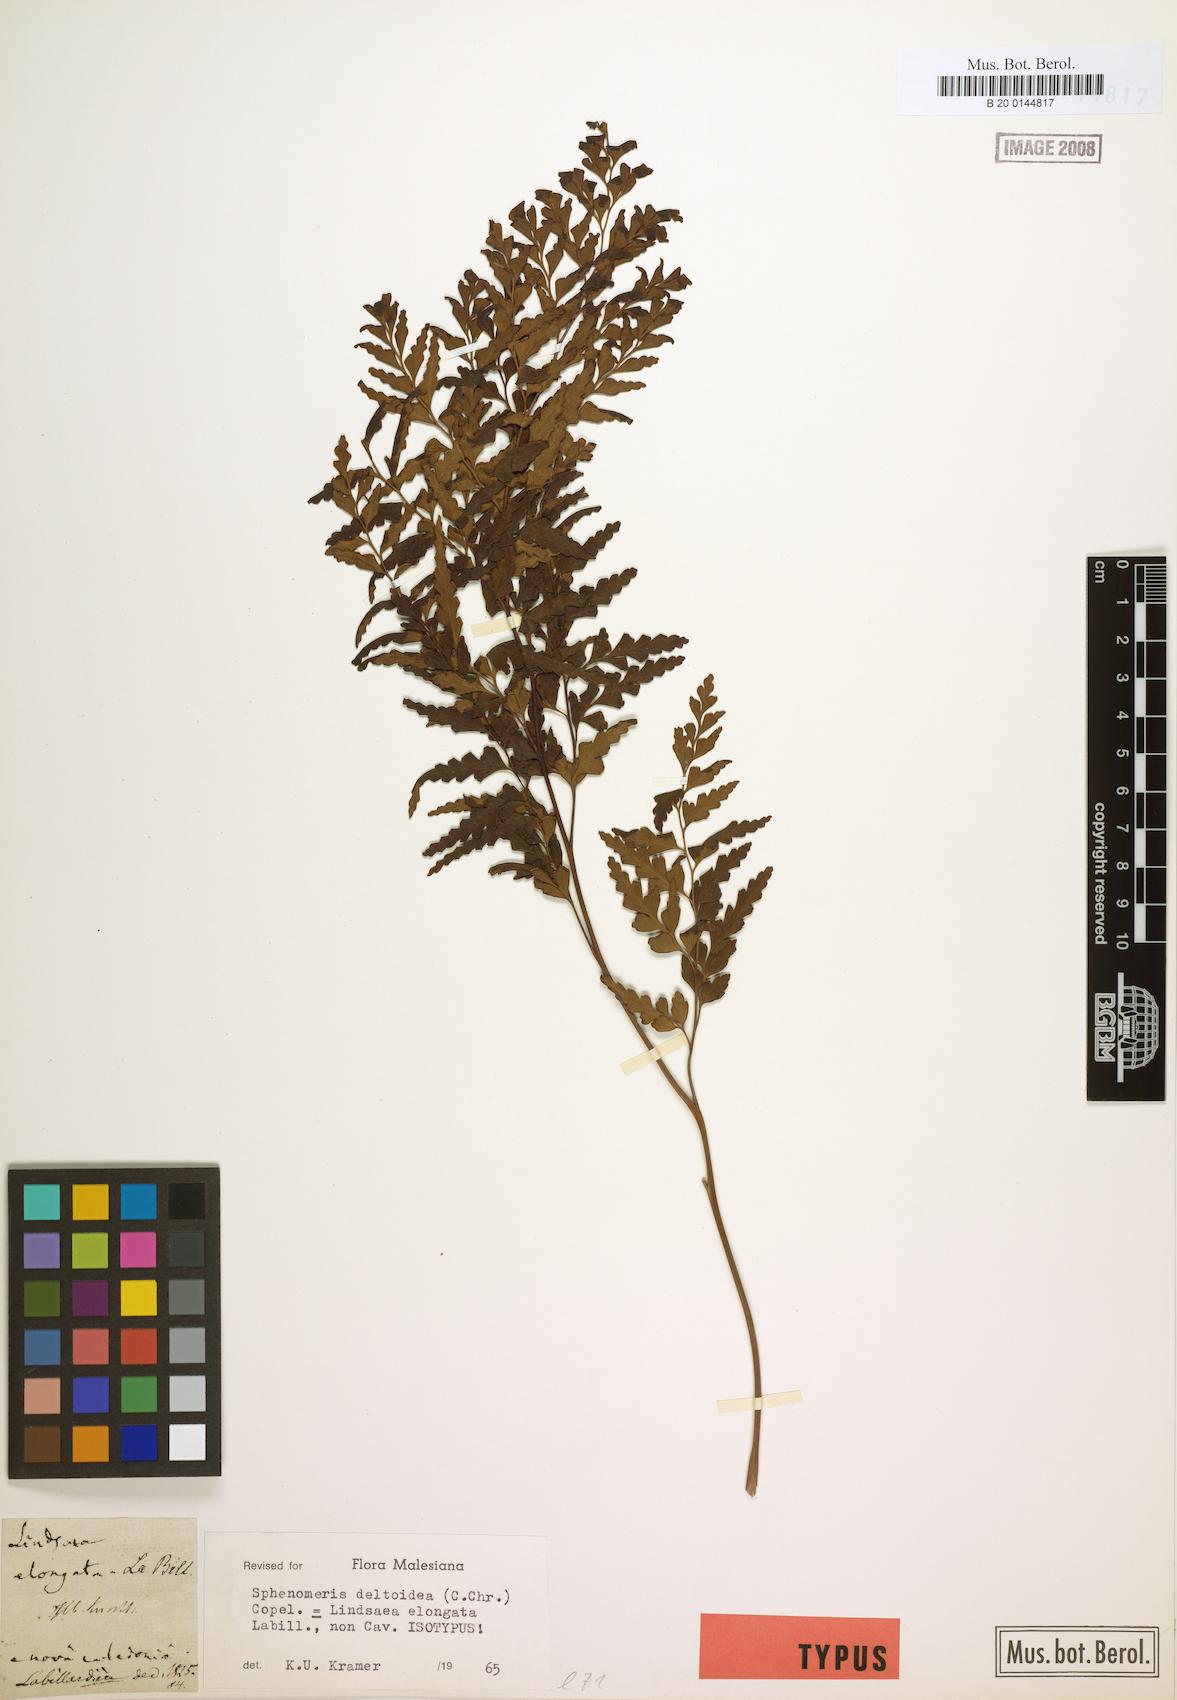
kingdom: Plantae
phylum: Tracheophyta
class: Polypodiopsida
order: Polypodiales
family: Lindsaeaceae
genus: Odontosoria
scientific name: Odontosoria deltoidea
